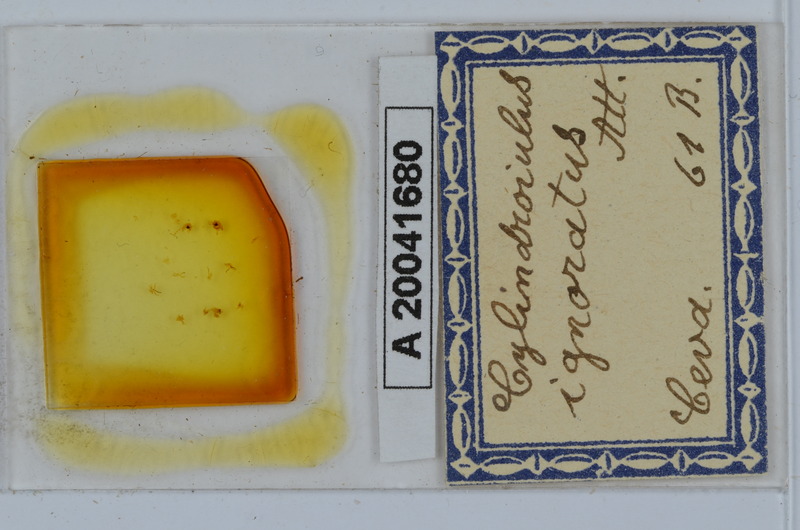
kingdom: Animalia
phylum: Arthropoda
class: Diplopoda
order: Julida
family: Julidae
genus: Cylindroiulus
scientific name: Cylindroiulus parisiorum
